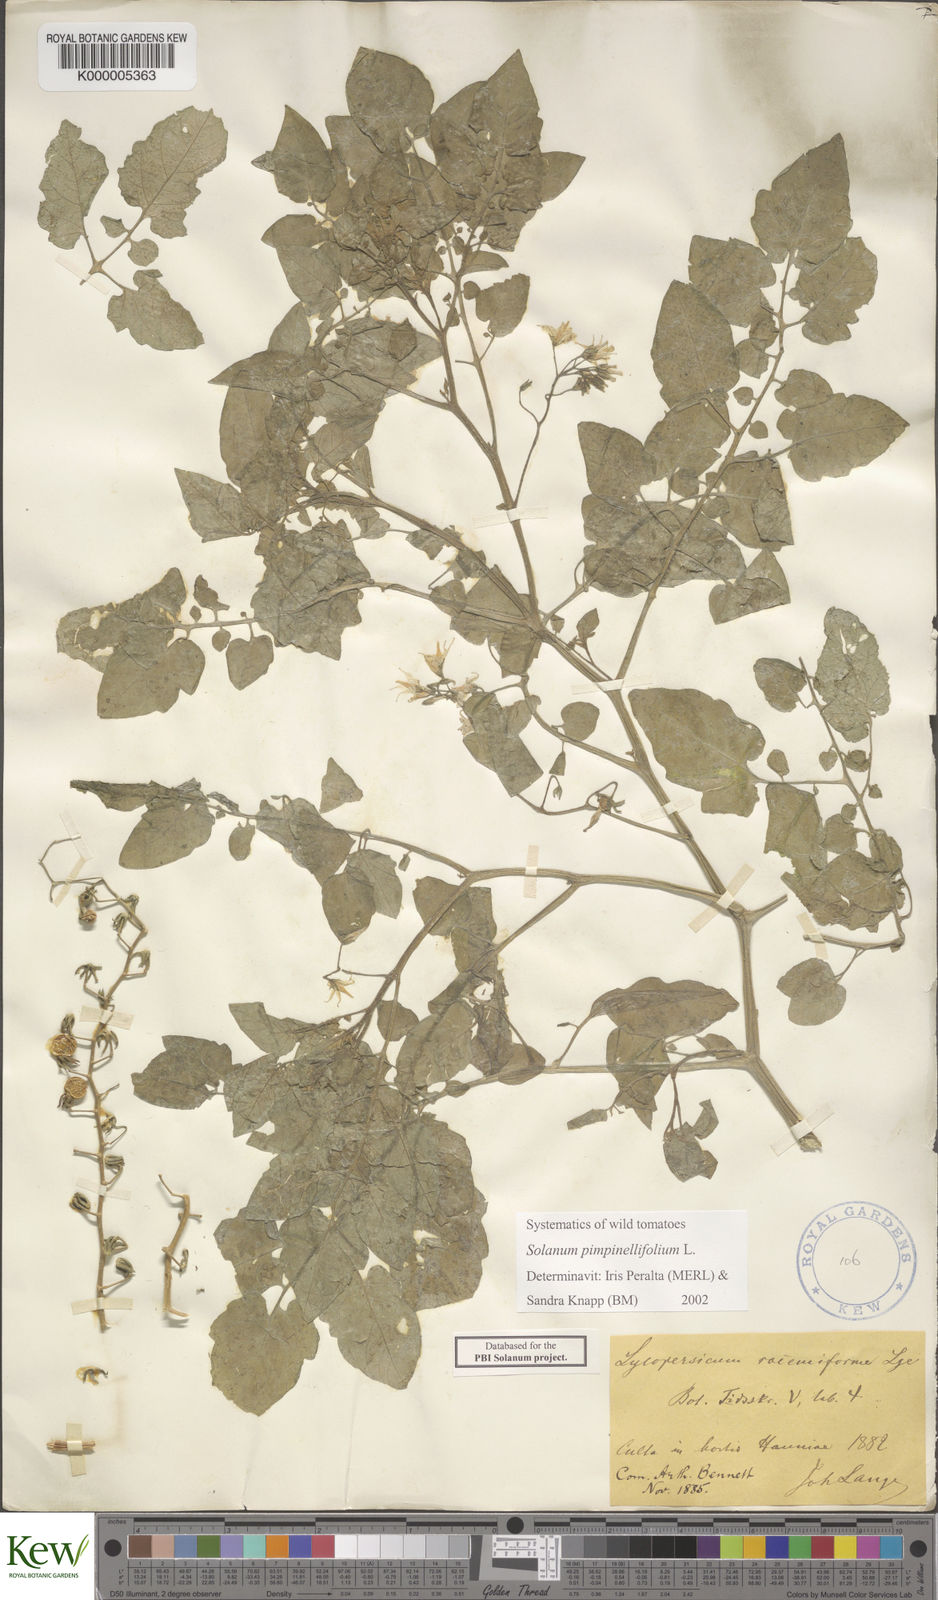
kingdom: Plantae
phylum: Tracheophyta
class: Magnoliopsida
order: Solanales
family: Solanaceae
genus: Solanum
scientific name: Solanum pimpinellifolium
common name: Currant-tomato
